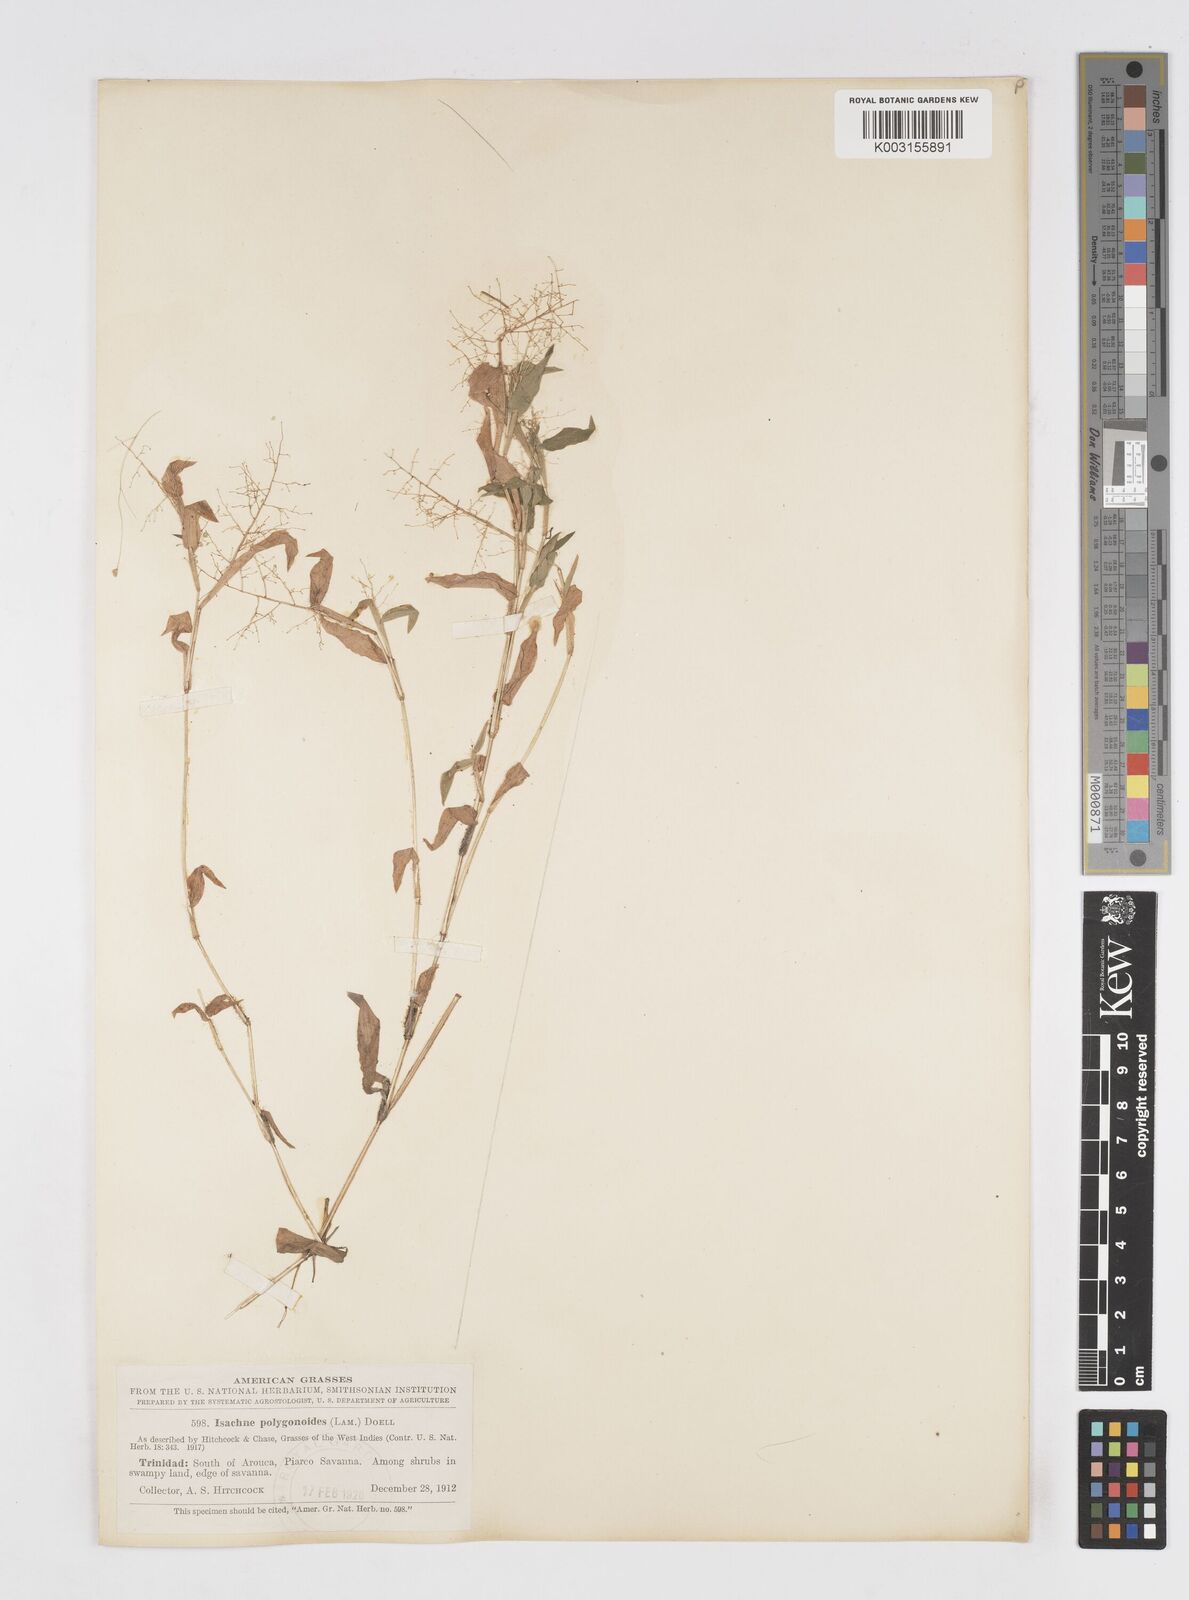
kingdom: Plantae
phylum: Tracheophyta
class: Liliopsida
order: Poales
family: Poaceae
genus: Isachne
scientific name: Isachne polygonoides
